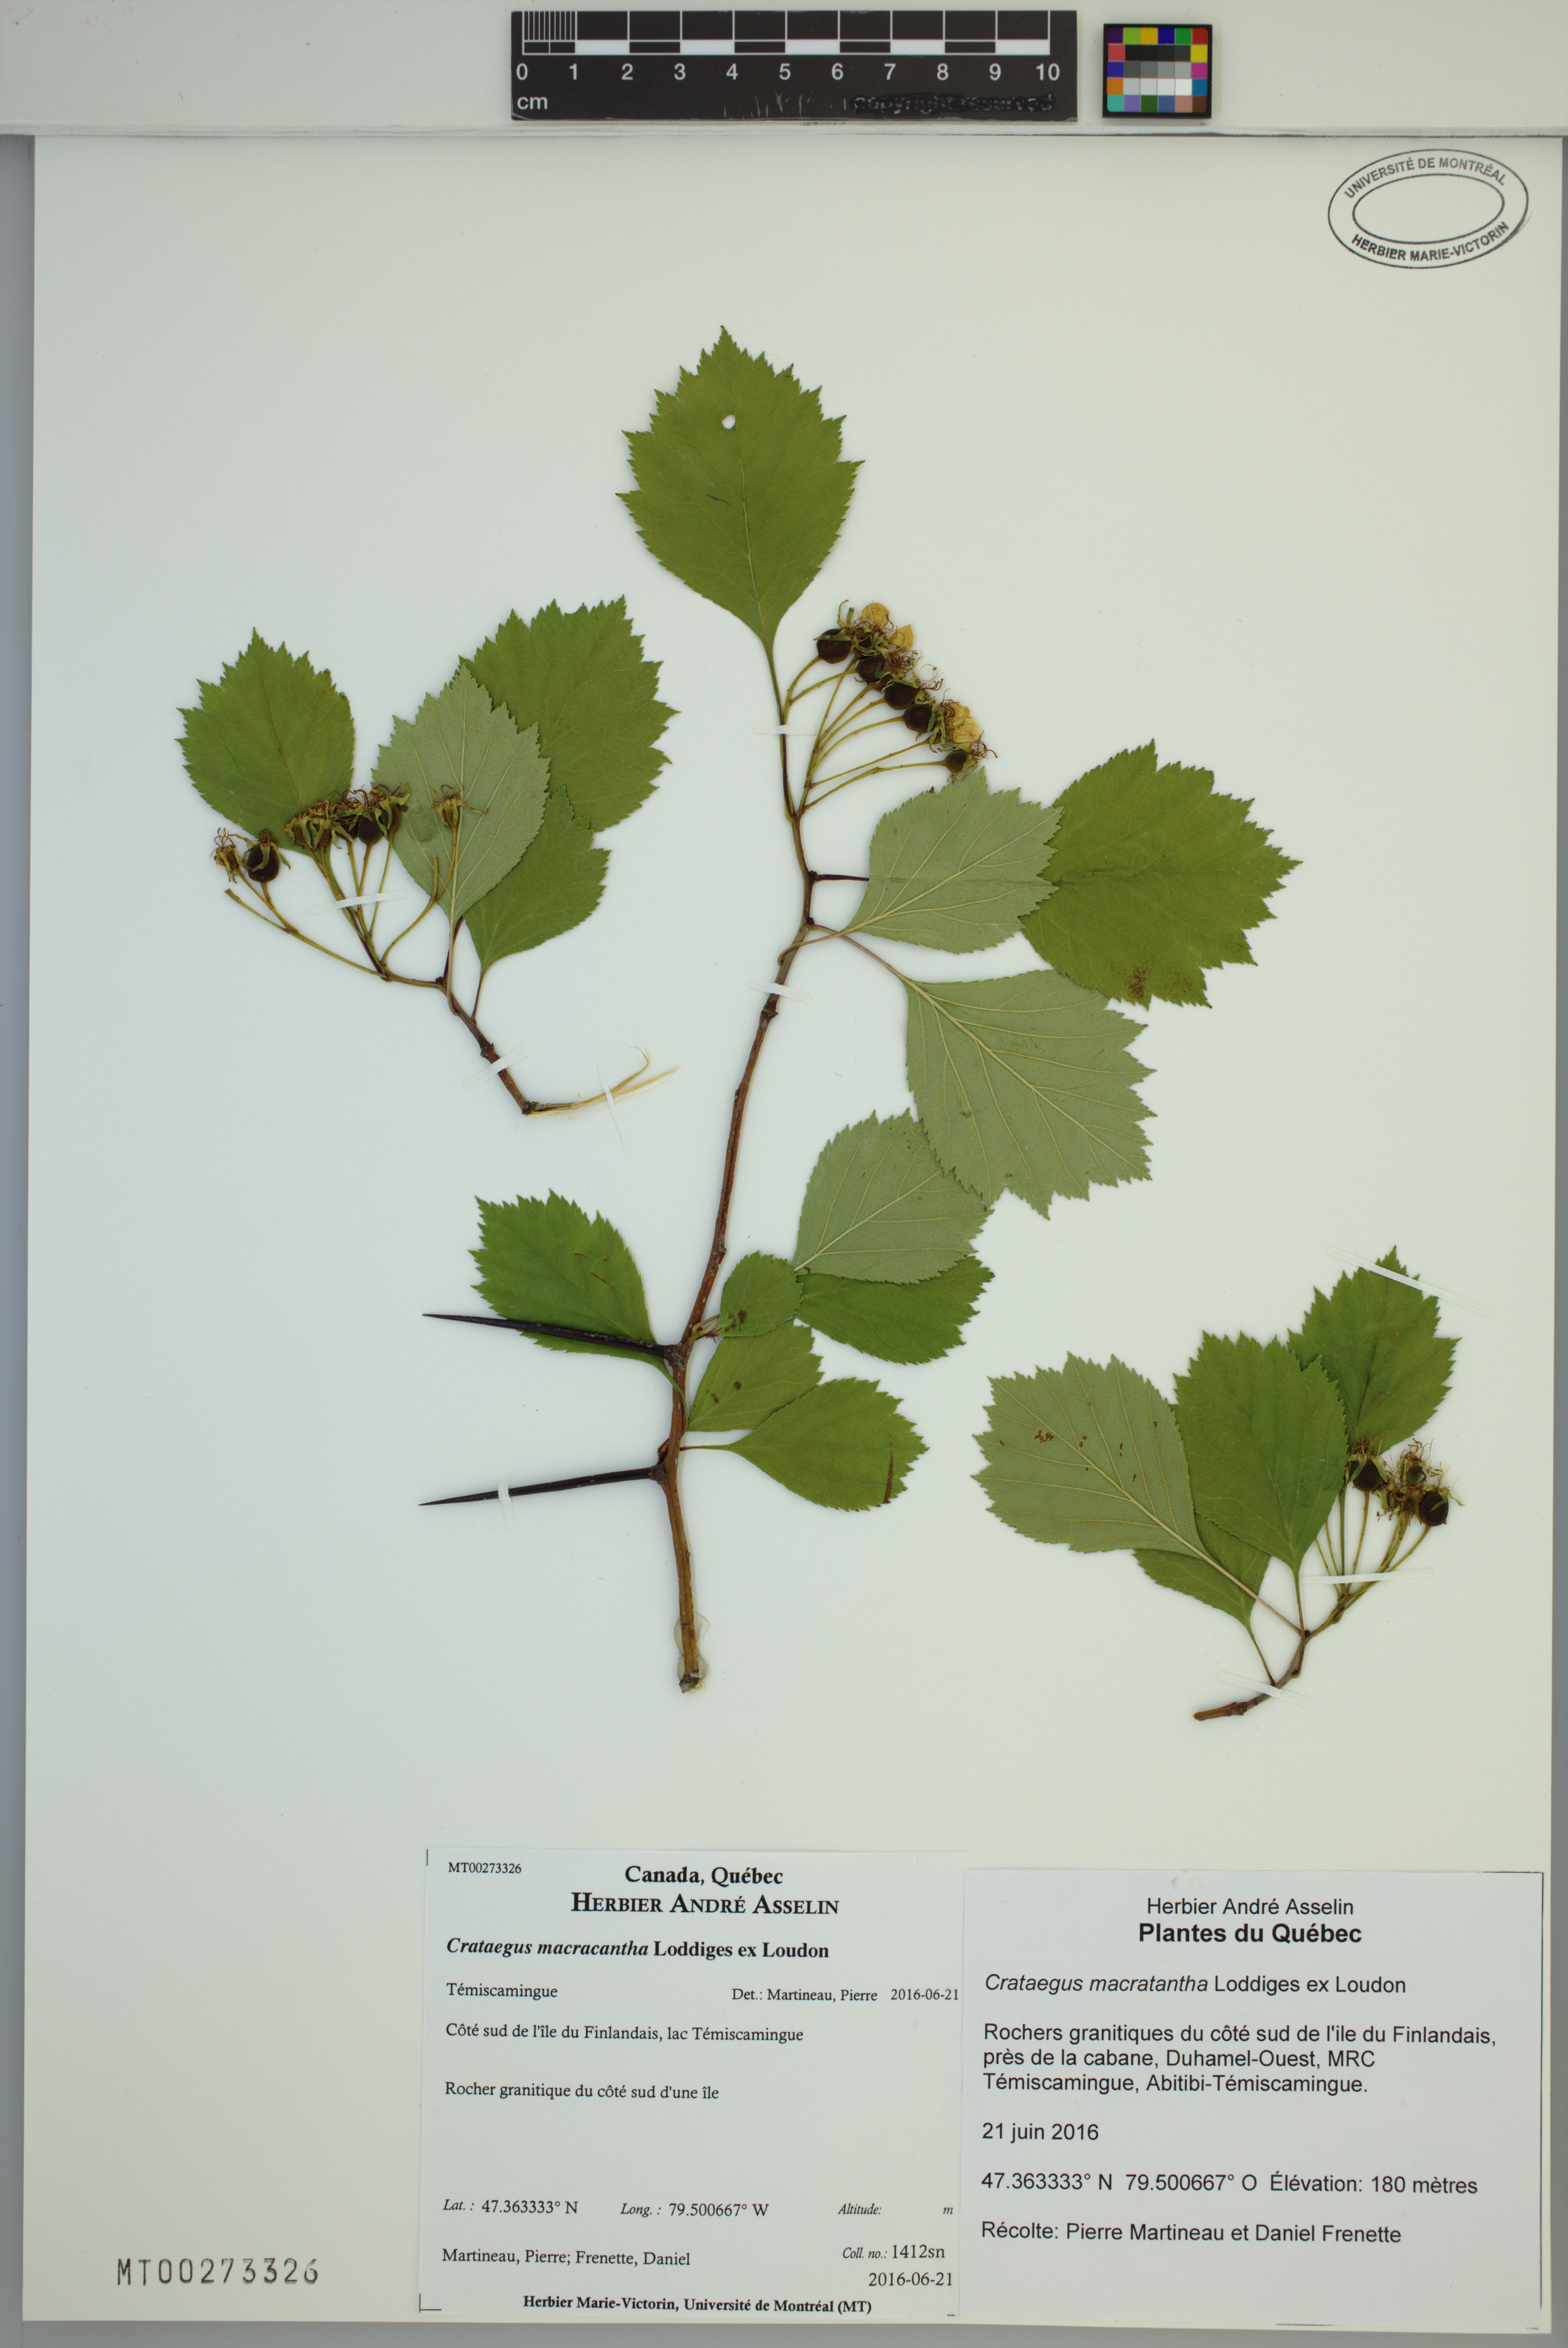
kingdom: Plantae
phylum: Tracheophyta
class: Magnoliopsida
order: Rosales
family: Rosaceae
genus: Crataegus
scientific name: Crataegus macracantha
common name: Large-thorn hawthorn
